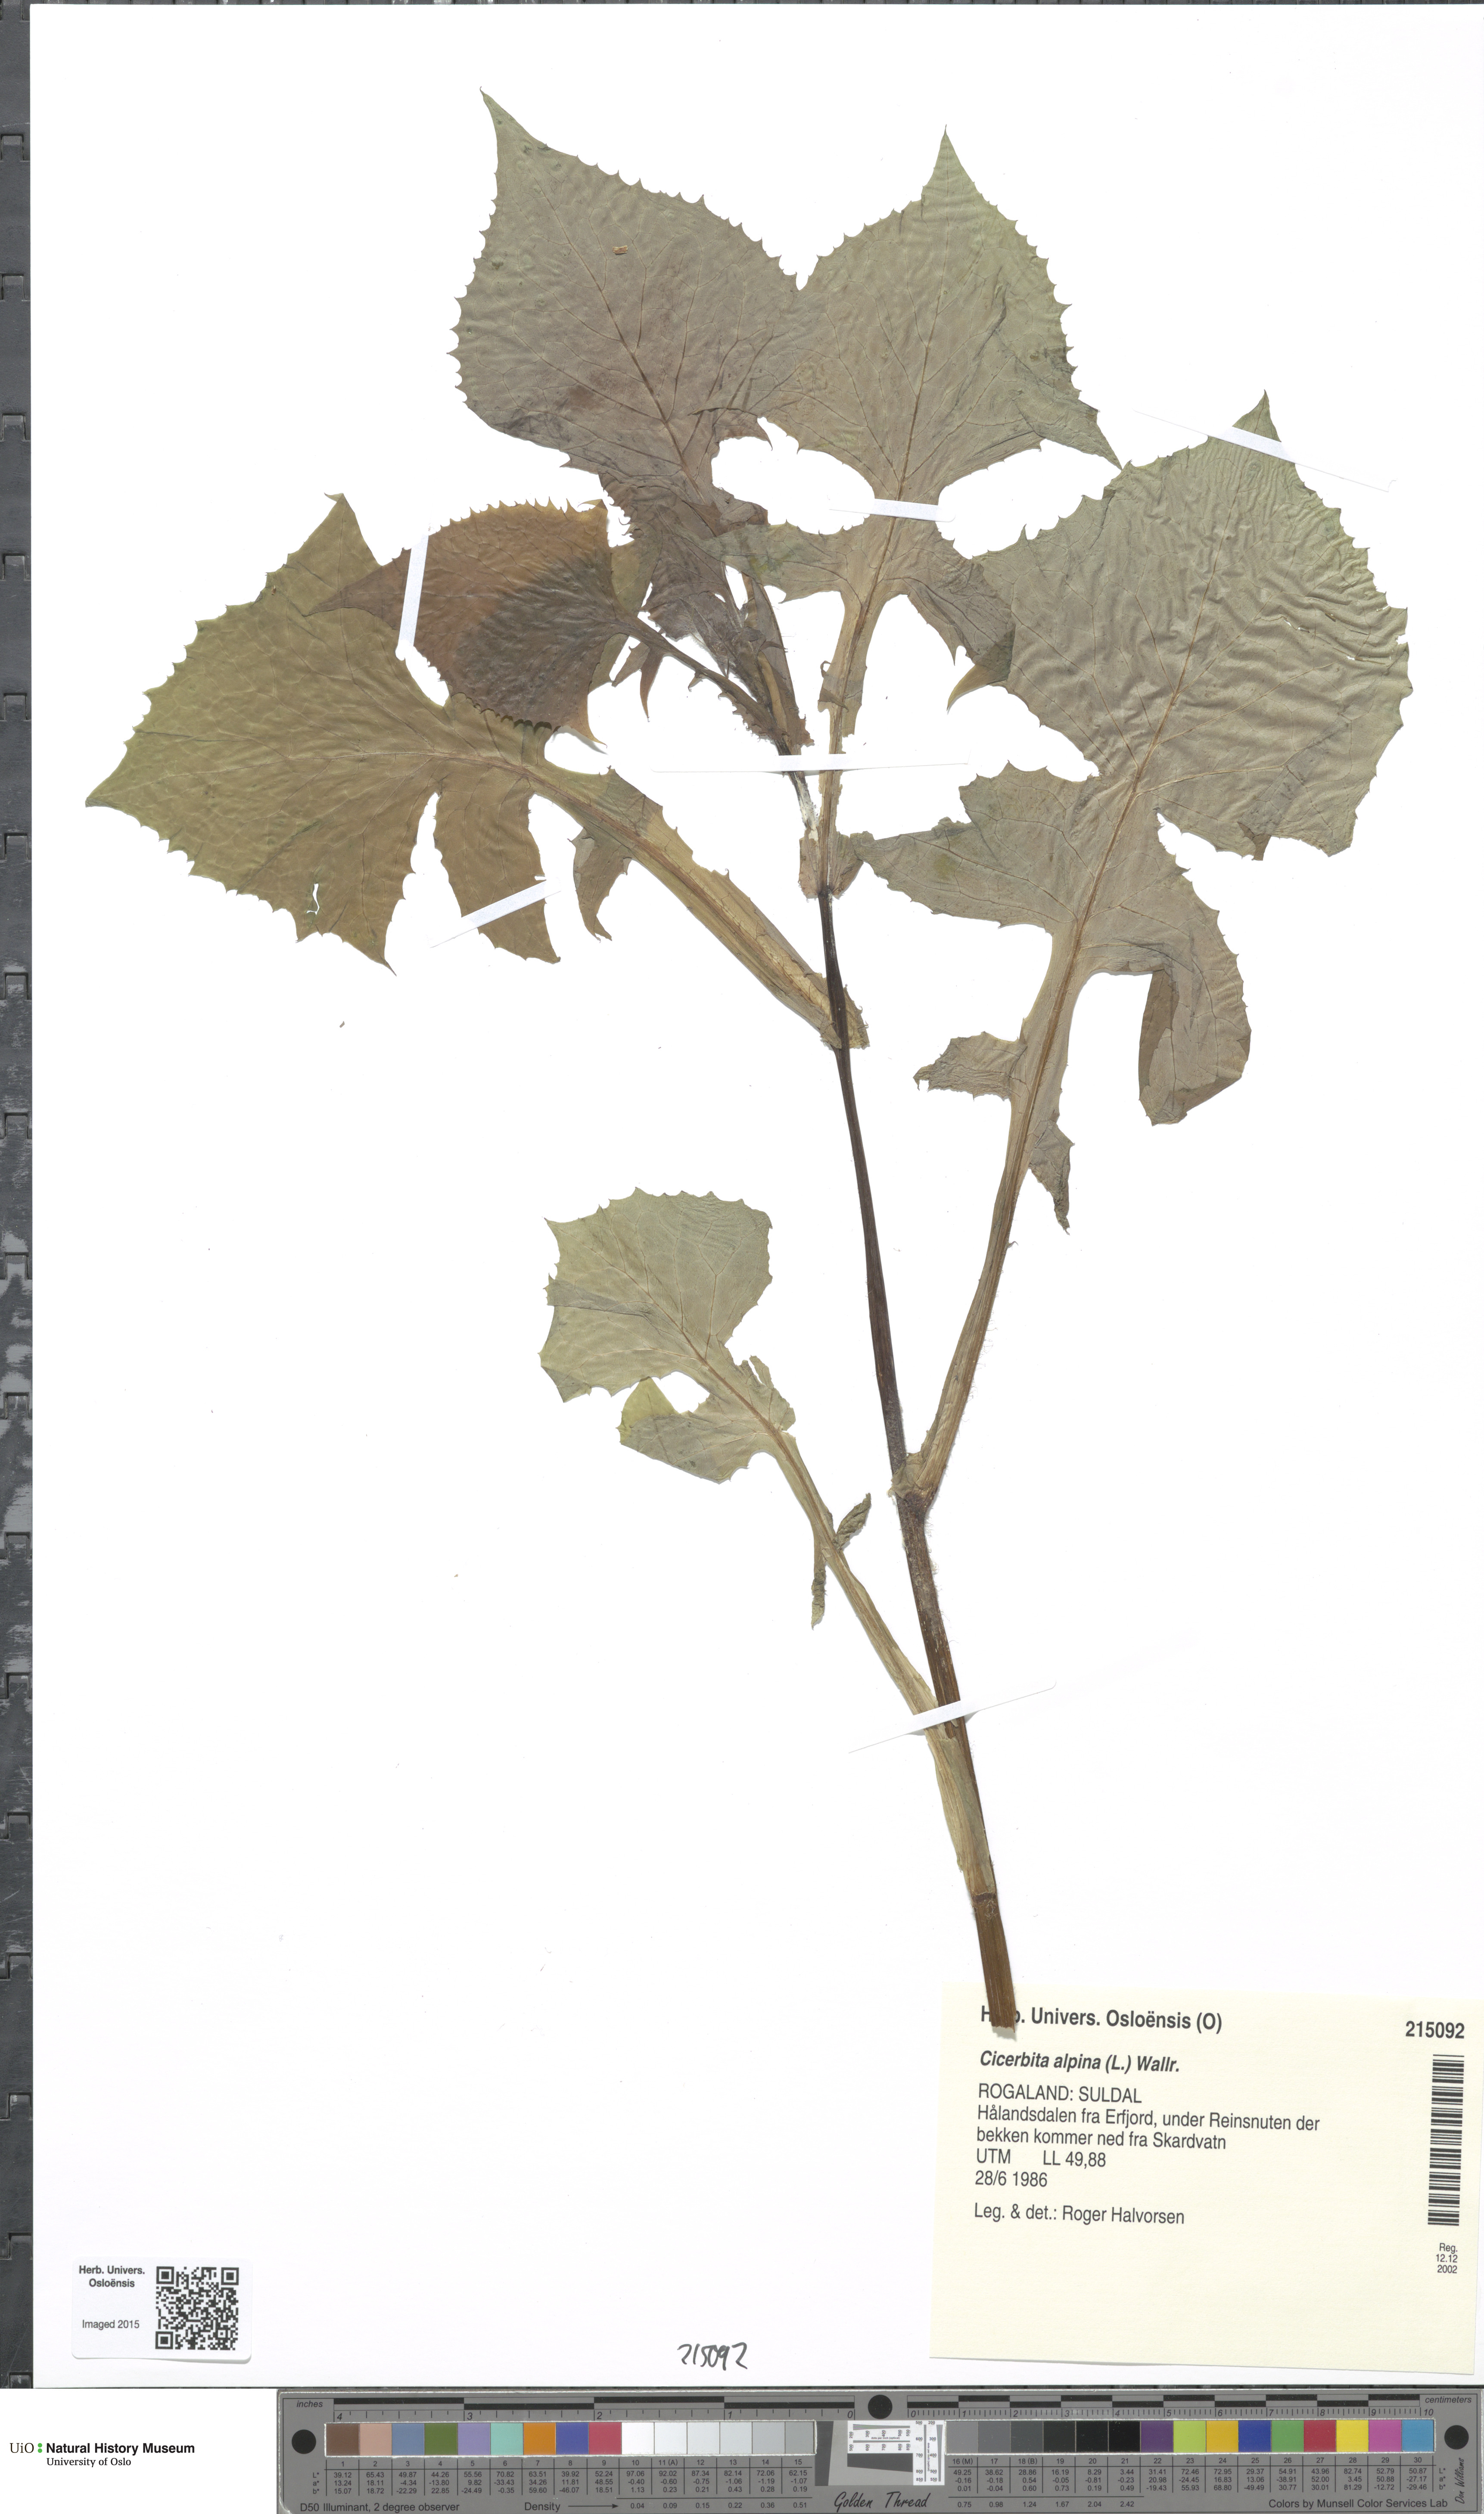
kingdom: Plantae
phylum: Tracheophyta
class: Magnoliopsida
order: Asterales
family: Asteraceae
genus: Cicerbita
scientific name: Cicerbita alpina
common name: Alpine blue-sow-thistle
